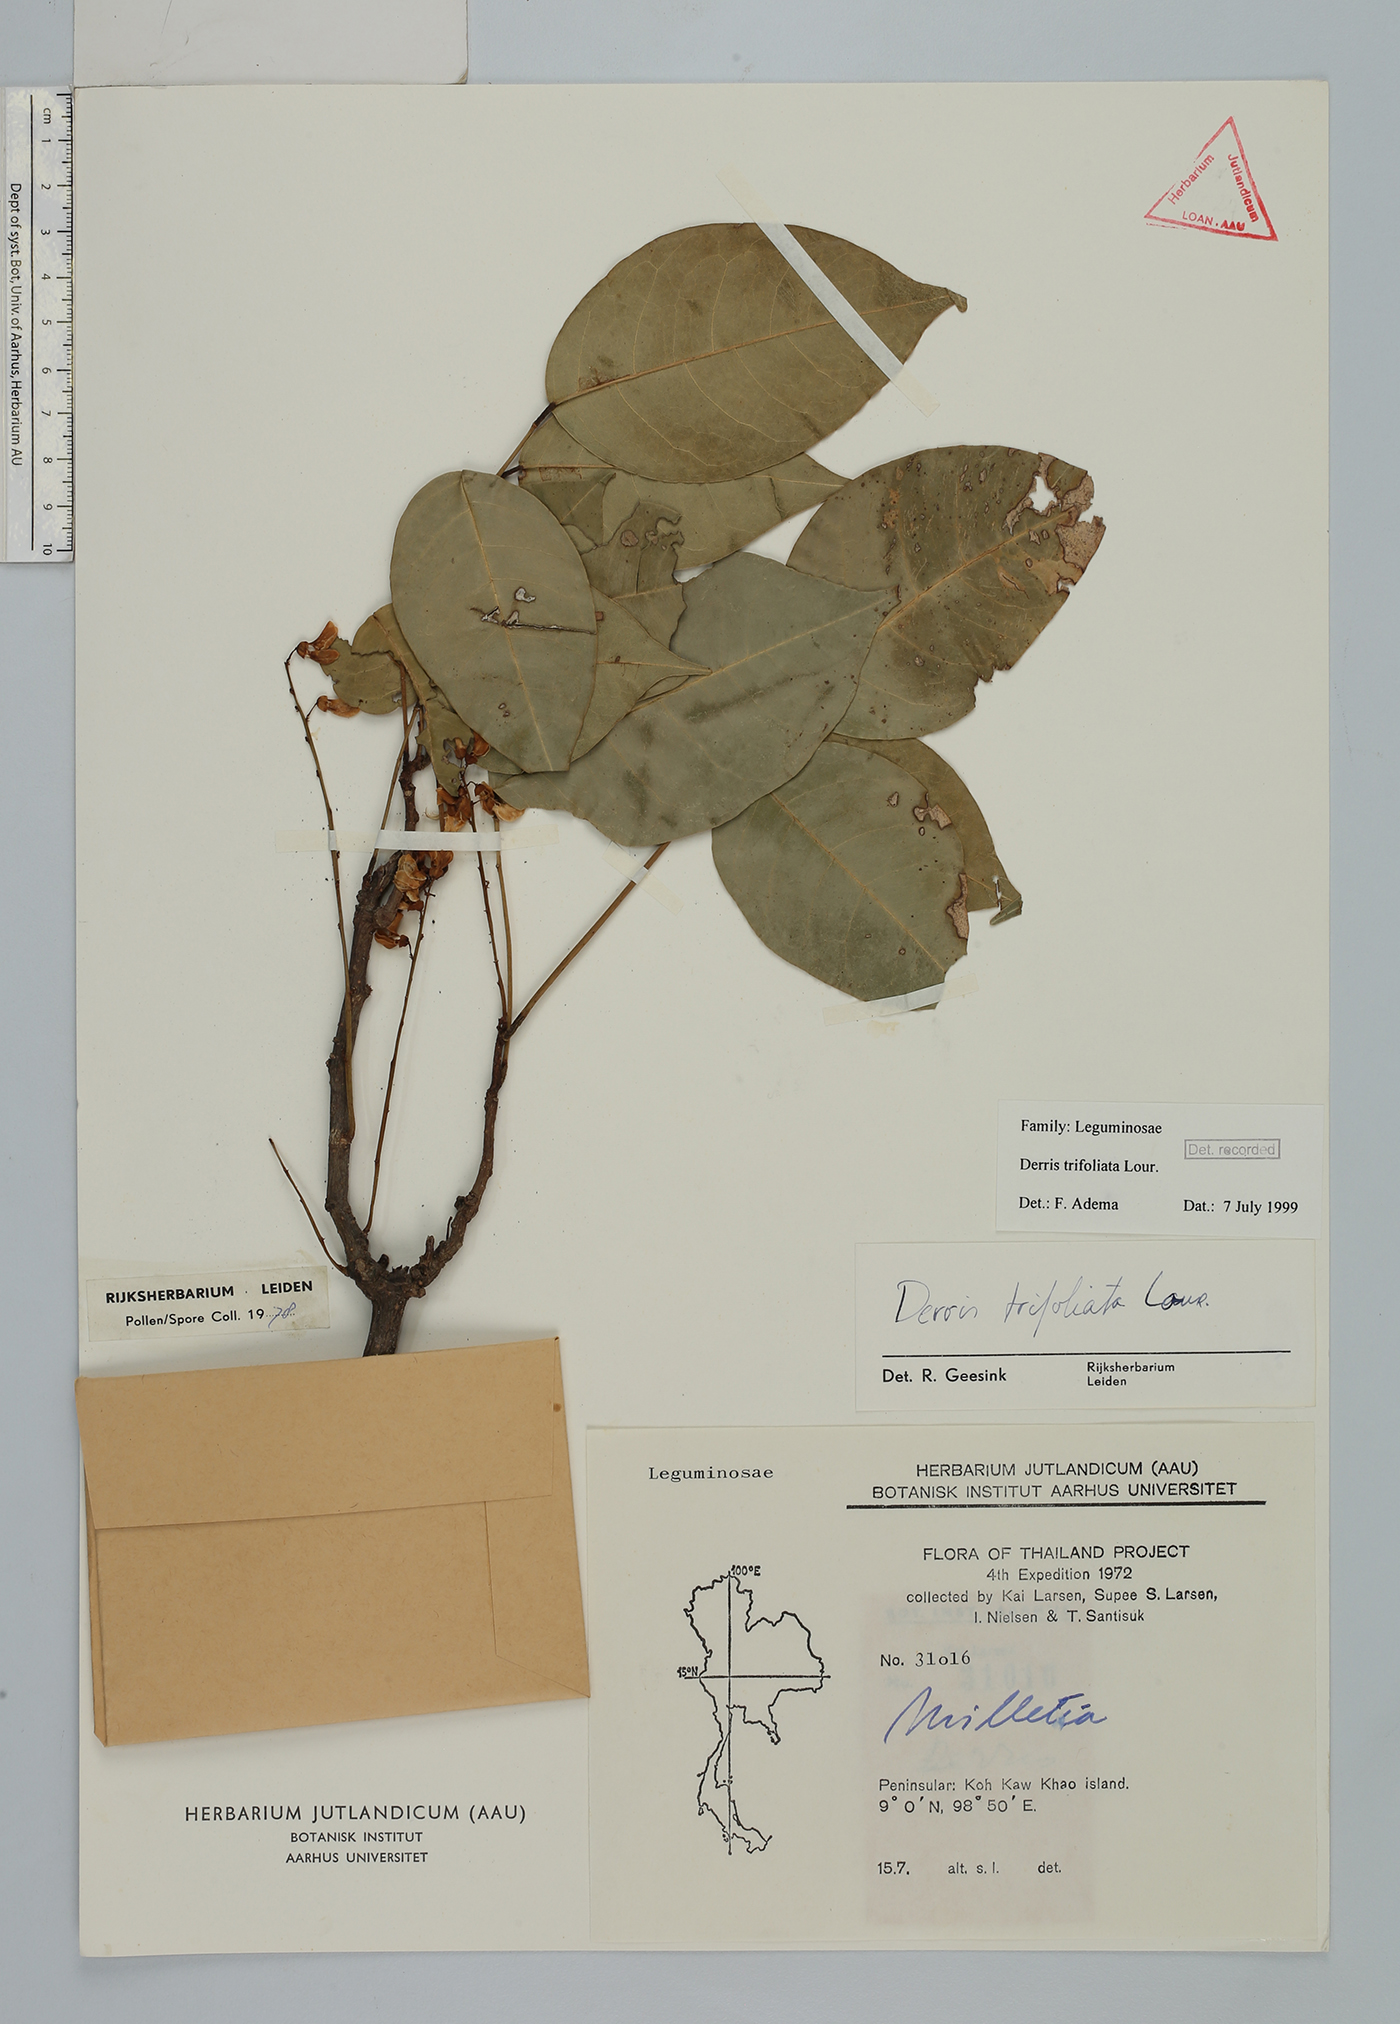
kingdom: Plantae
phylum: Tracheophyta
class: Magnoliopsida
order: Fabales
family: Fabaceae
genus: Derris
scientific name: Derris trifoliata
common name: Three-leaf derris
